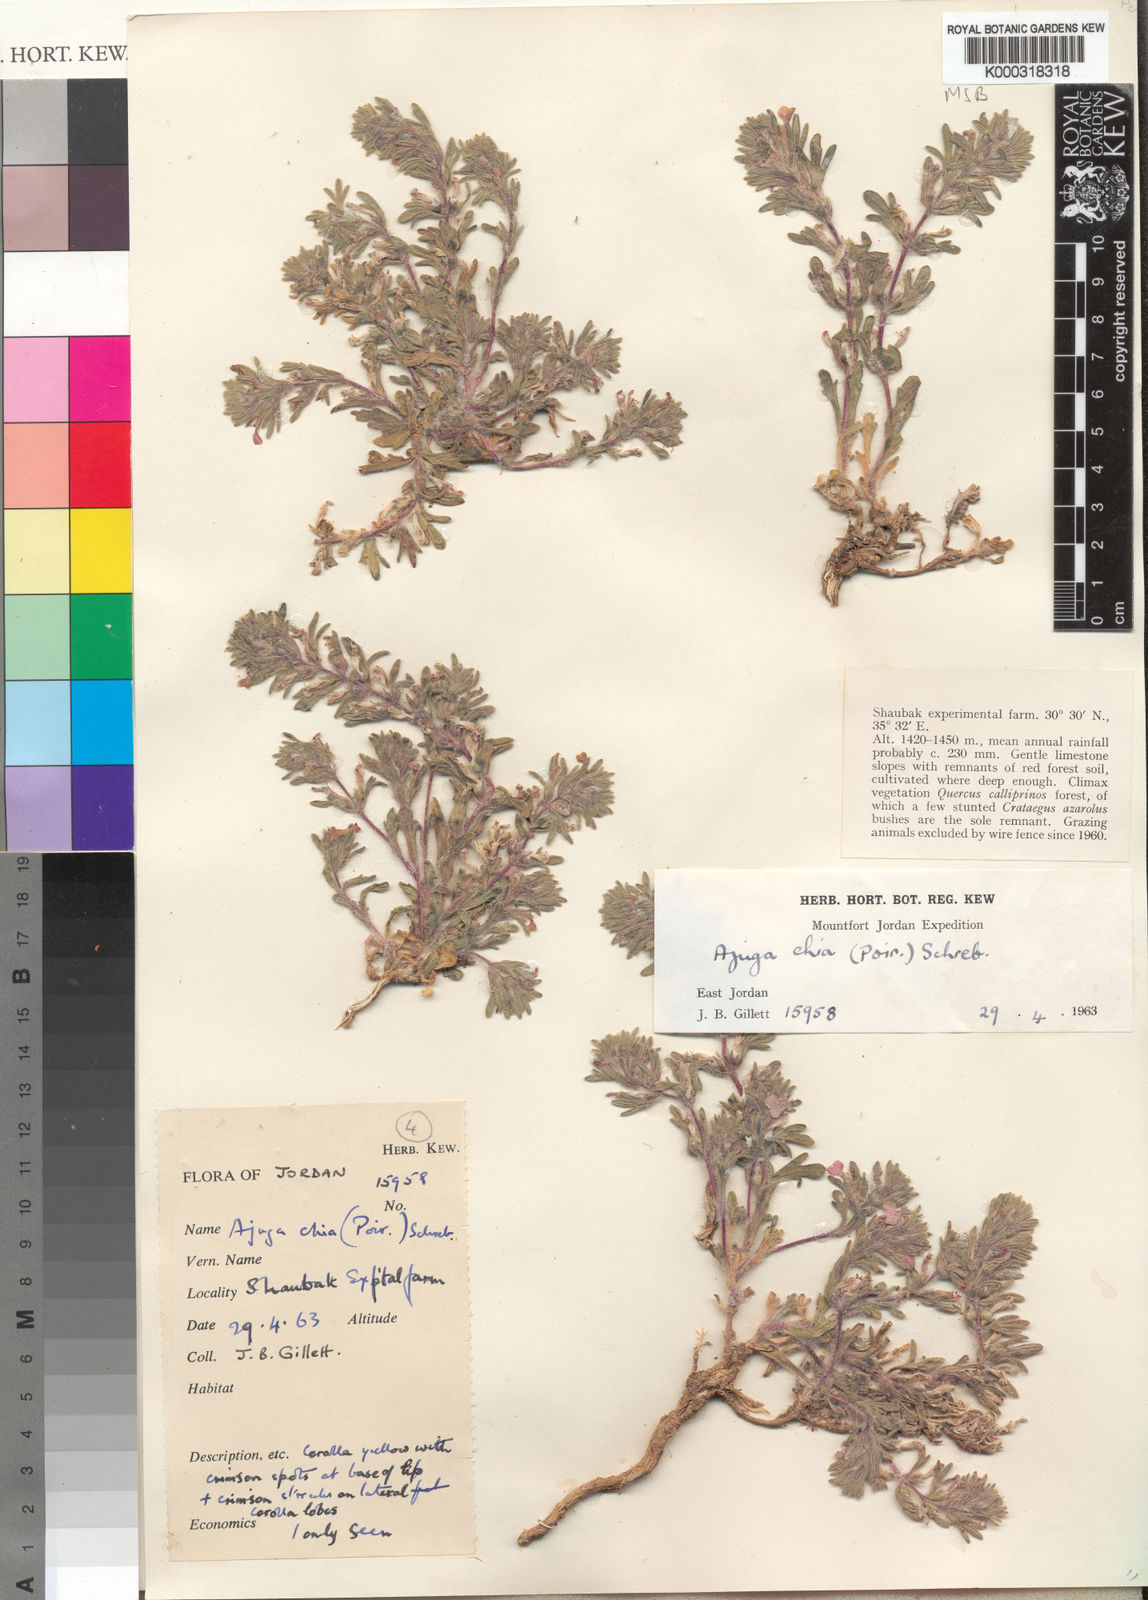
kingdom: Plantae
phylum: Tracheophyta
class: Magnoliopsida
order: Lamiales
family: Lamiaceae
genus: Ajuga
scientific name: Ajuga chamaepitys
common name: Ground-pine
